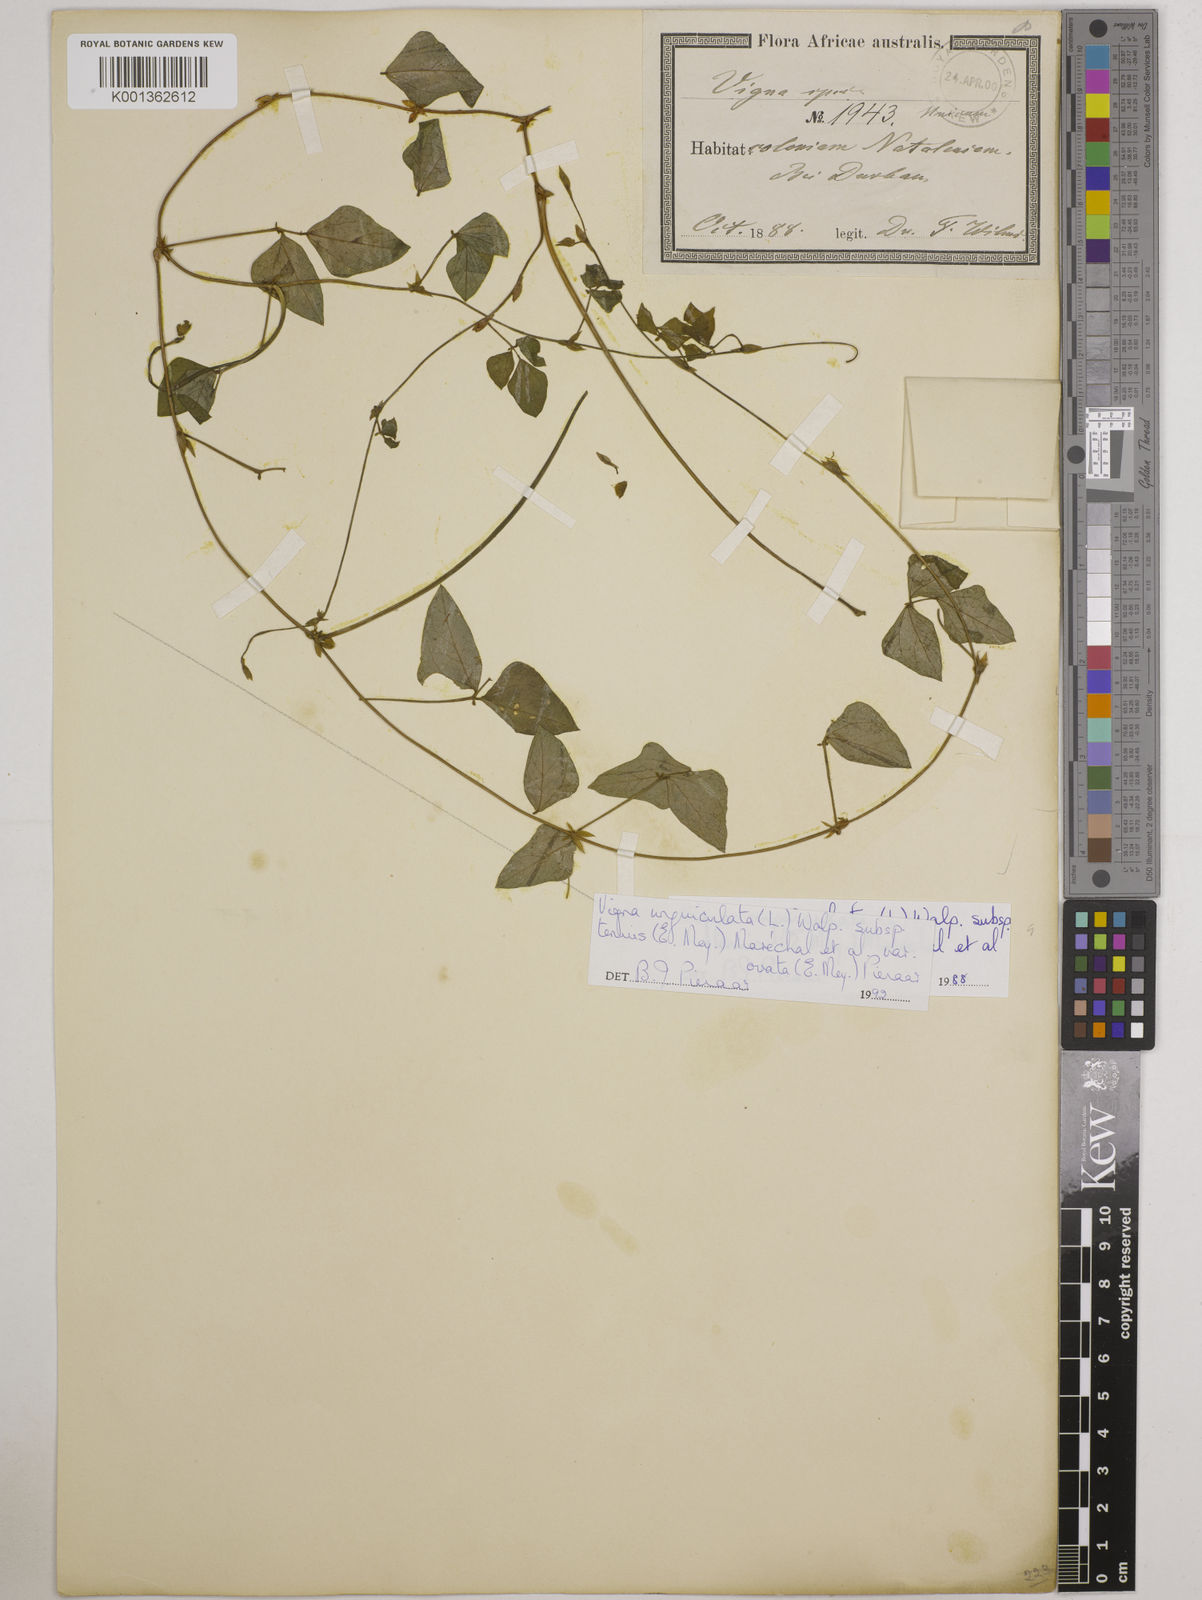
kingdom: Plantae
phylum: Tracheophyta
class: Magnoliopsida
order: Fabales
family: Fabaceae
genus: Vigna
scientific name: Vigna
